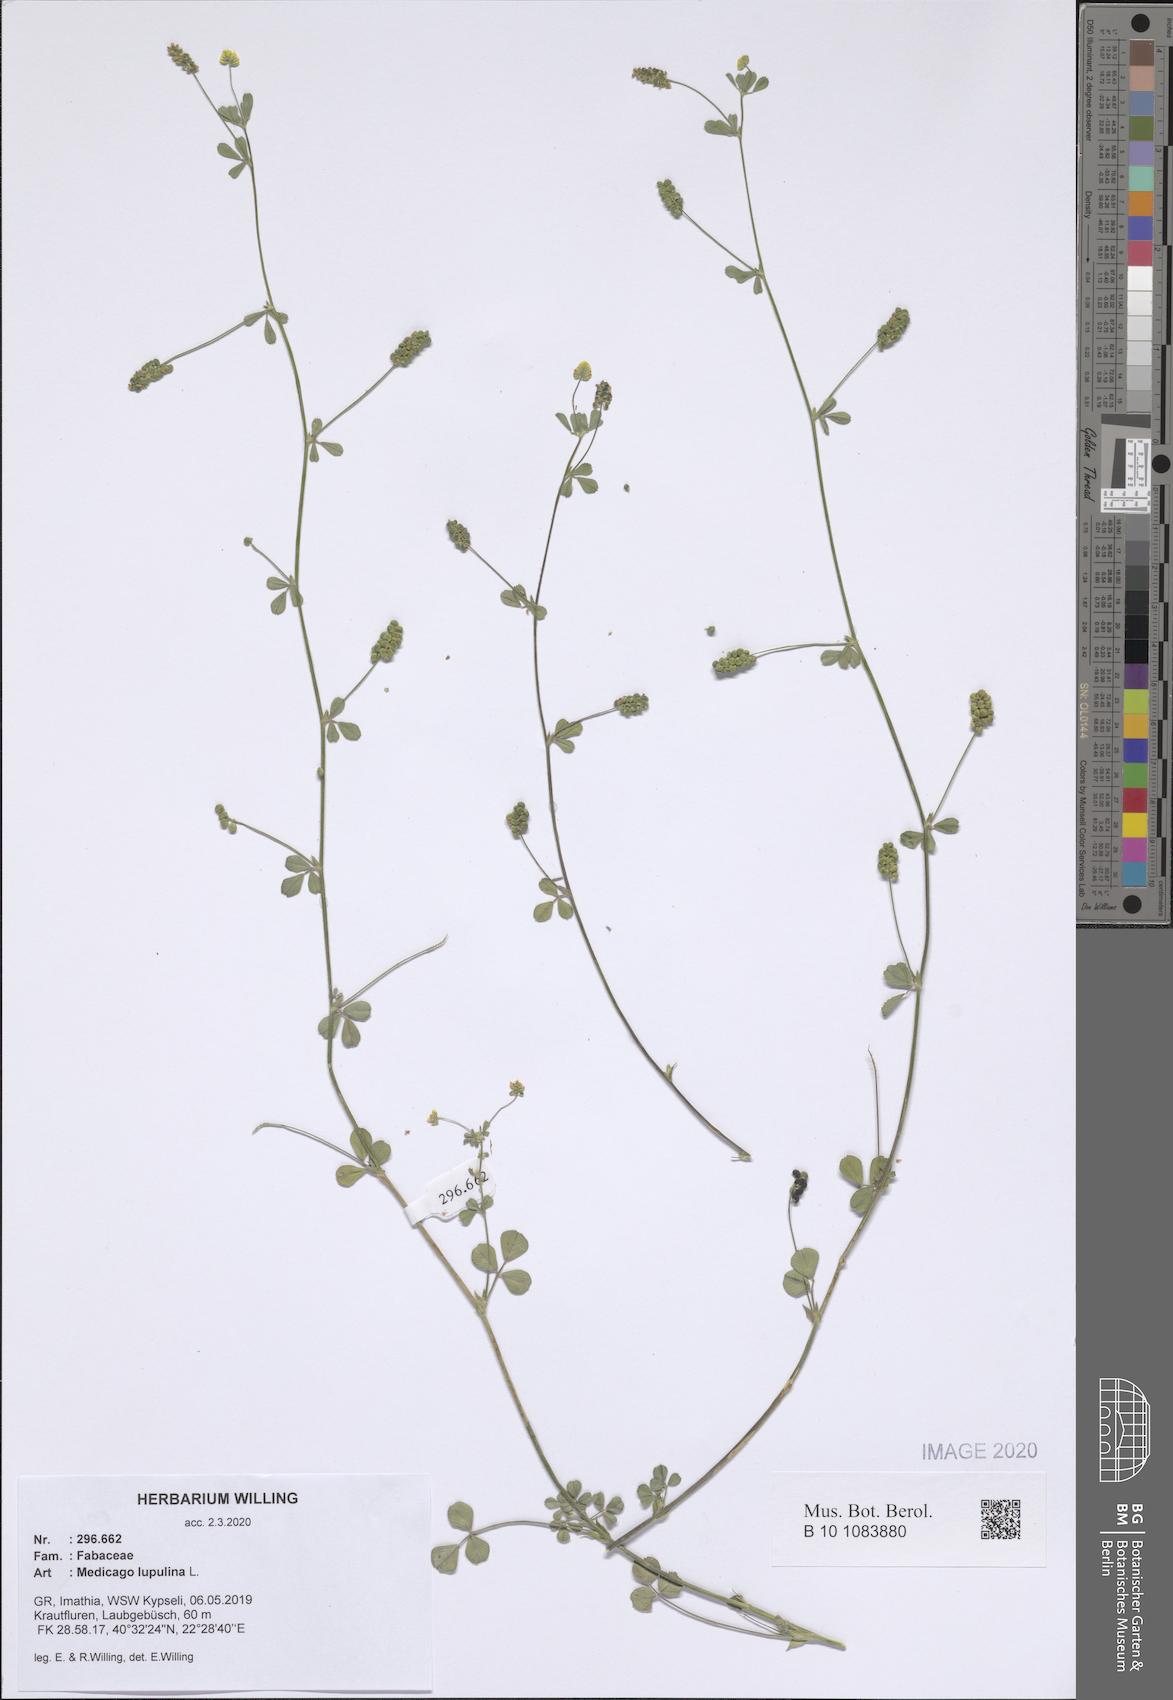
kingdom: Plantae
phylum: Tracheophyta
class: Magnoliopsida
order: Fabales
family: Fabaceae
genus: Medicago
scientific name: Medicago lupulina
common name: Black medick
